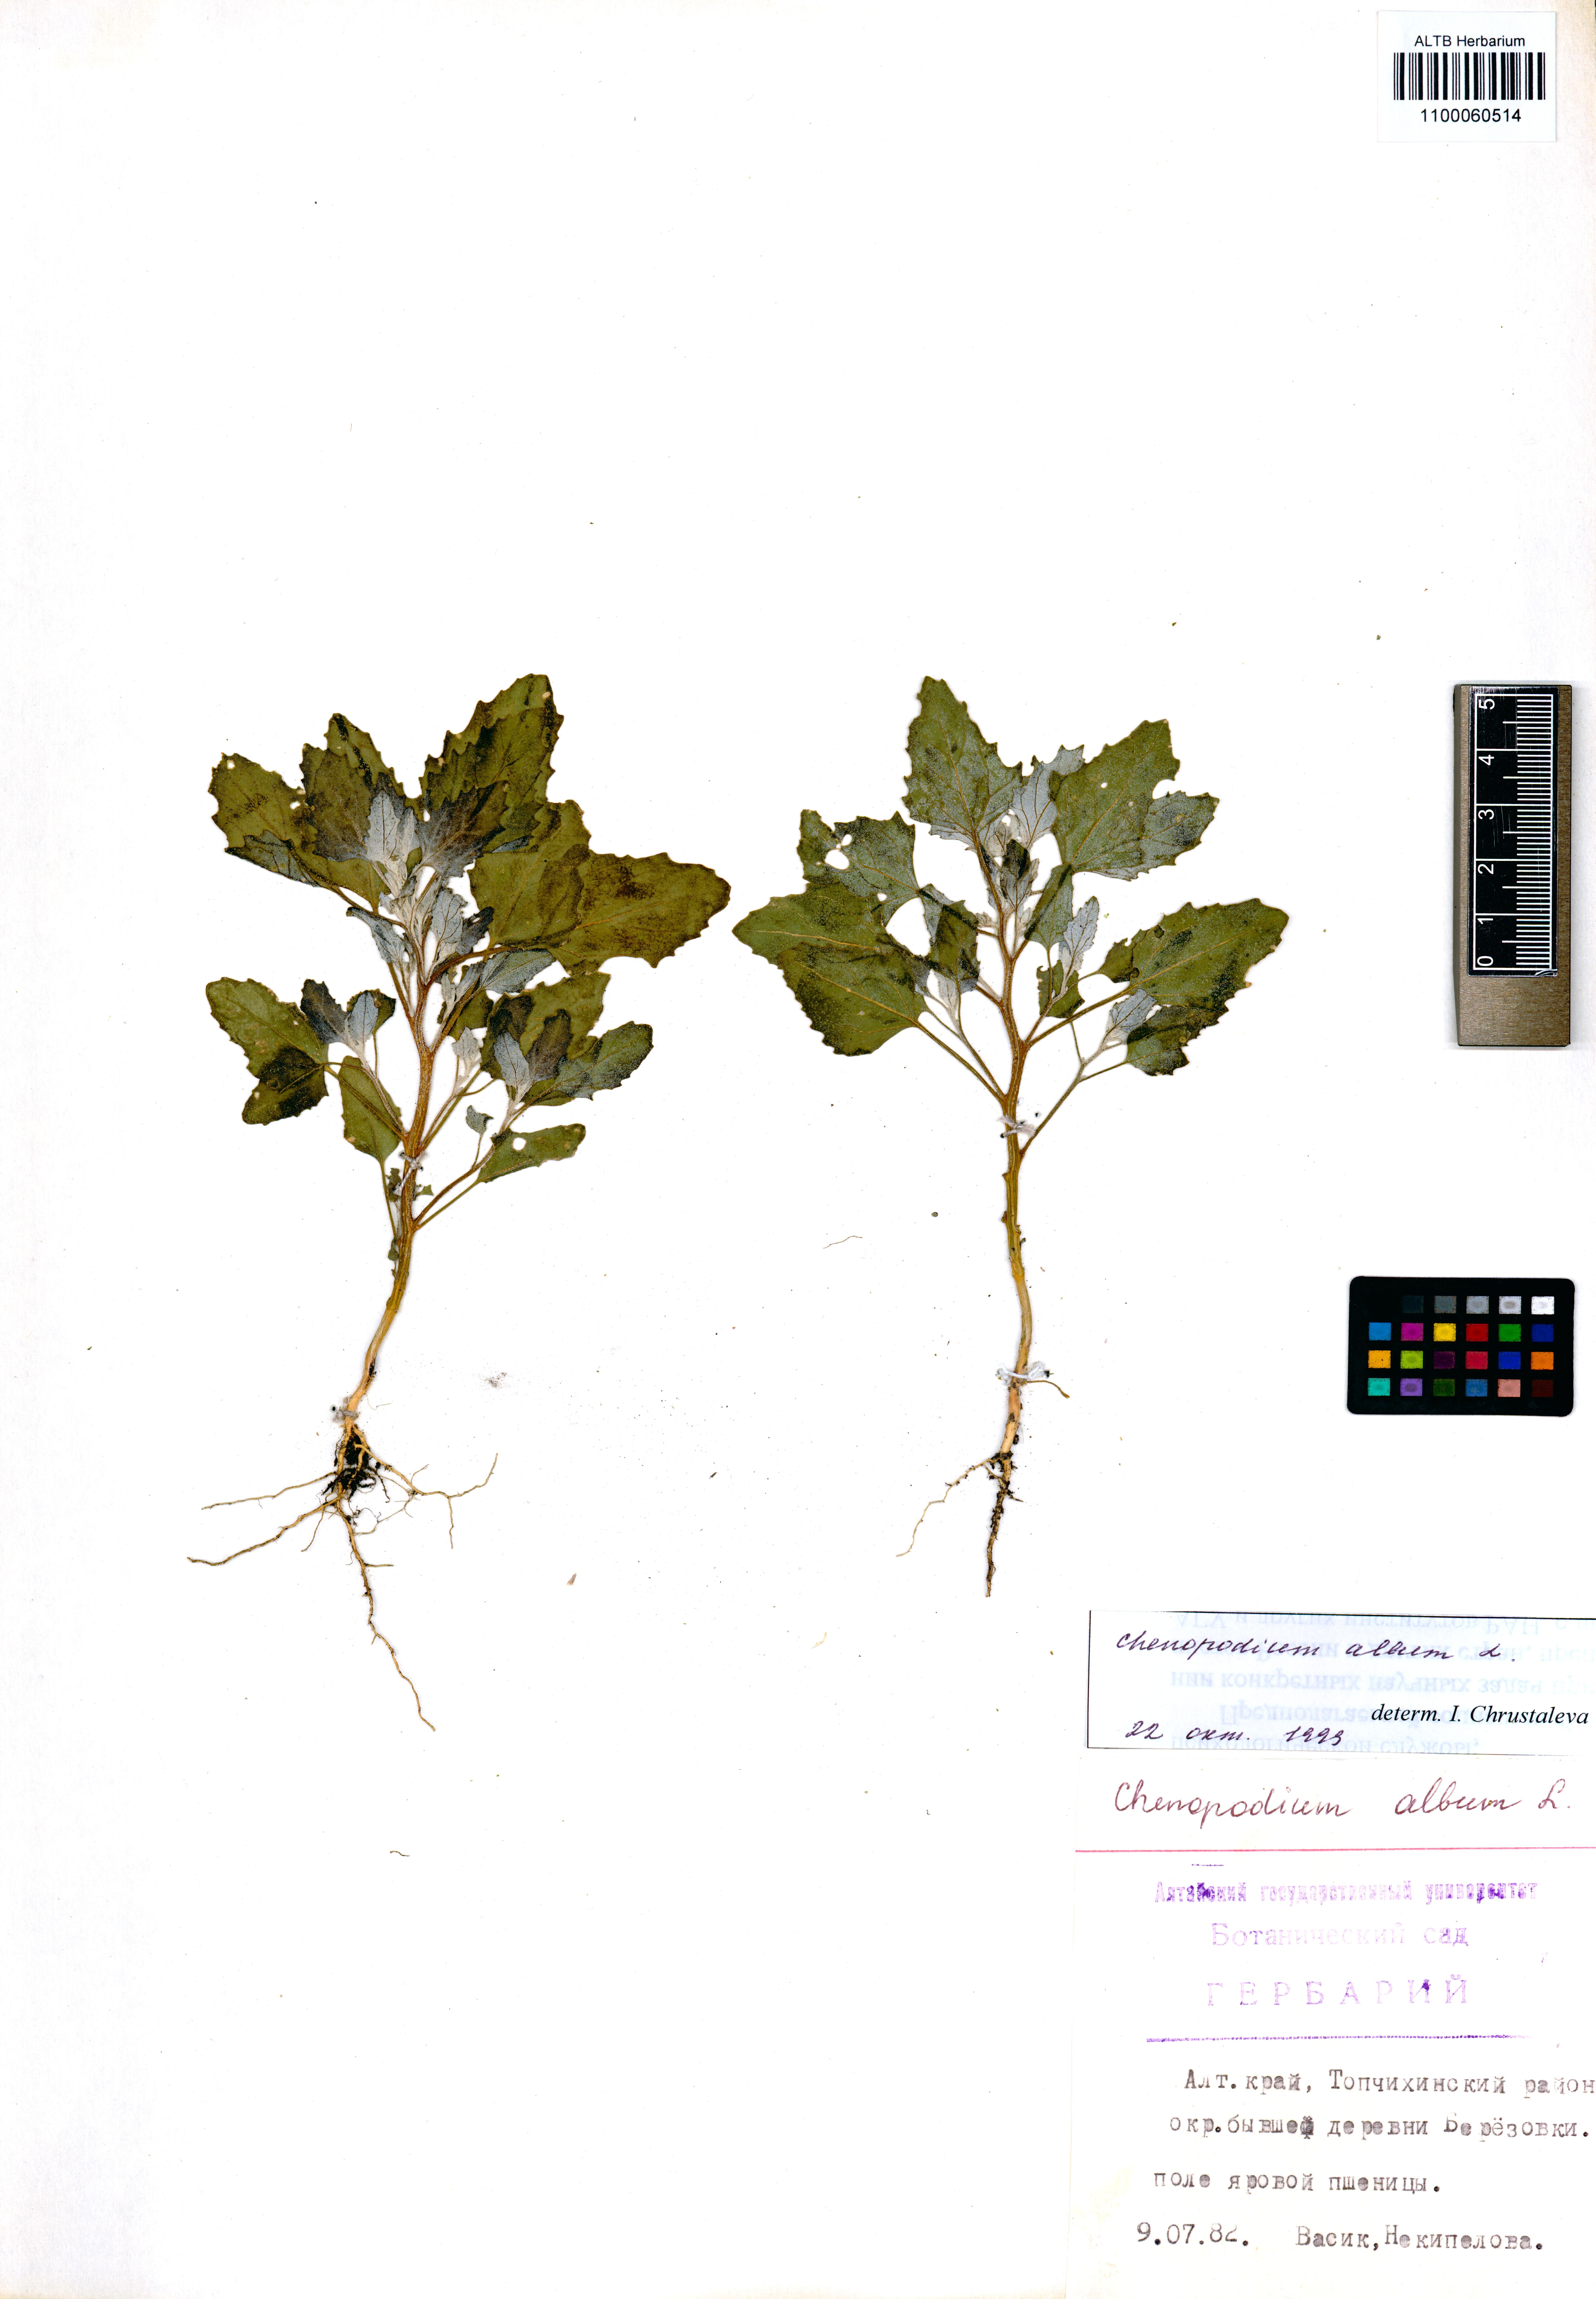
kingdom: Plantae
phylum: Tracheophyta
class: Magnoliopsida
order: Caryophyllales
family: Amaranthaceae
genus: Chenopodium
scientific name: Chenopodium album
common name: Fat-hen
